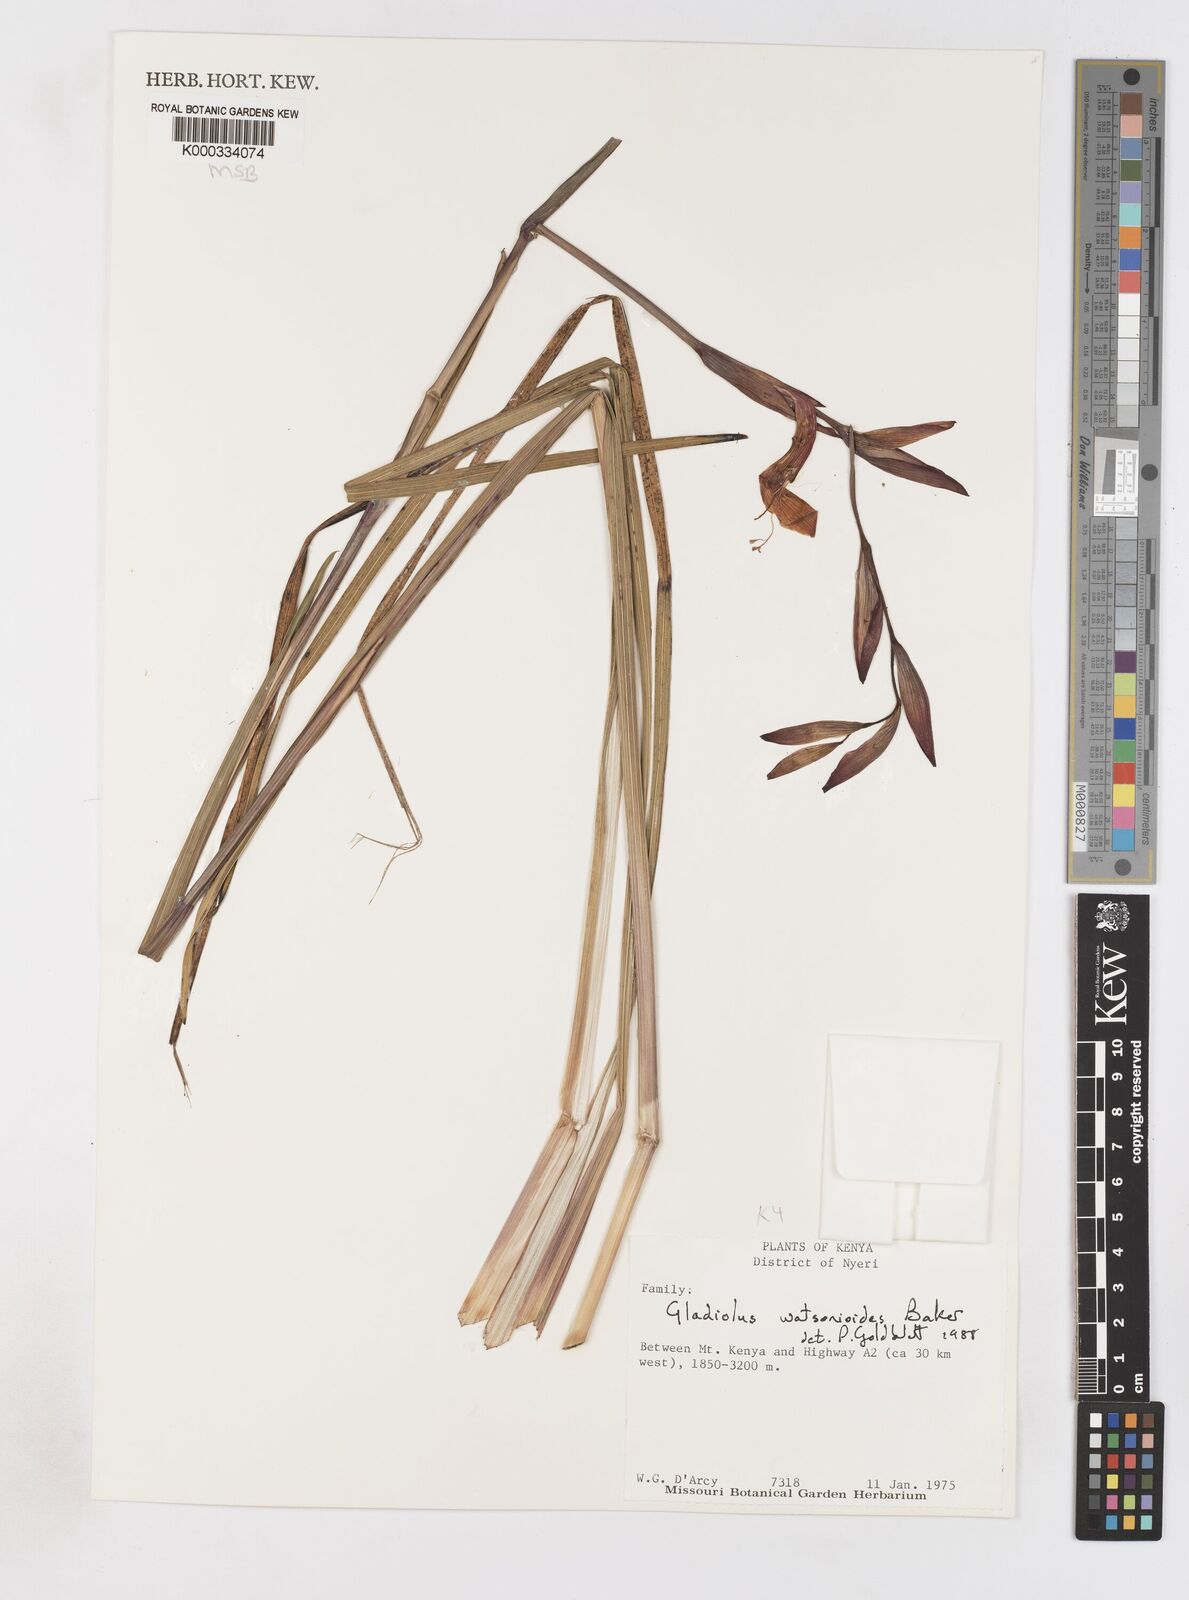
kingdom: Plantae
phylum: Tracheophyta
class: Liliopsida
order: Asparagales
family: Iridaceae
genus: Gladiolus
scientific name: Gladiolus watsonioides
